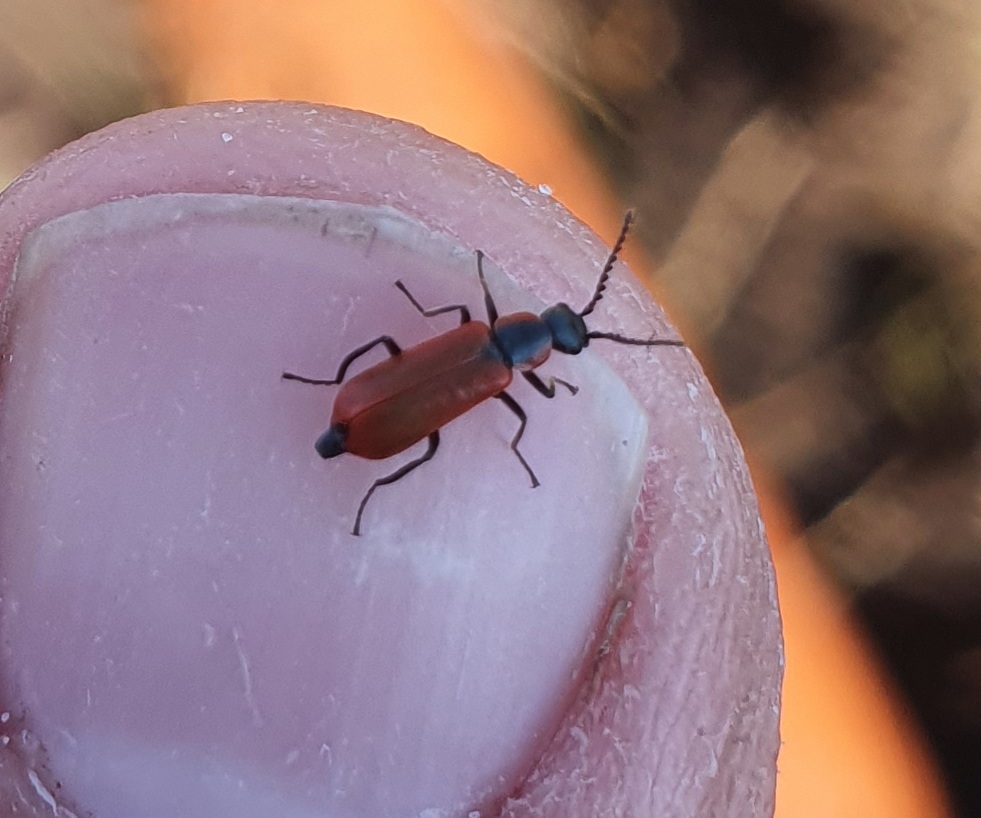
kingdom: Animalia
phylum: Arthropoda
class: Insecta
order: Coleoptera
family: Melyridae
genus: Anthocomus
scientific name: Anthocomus rufus
